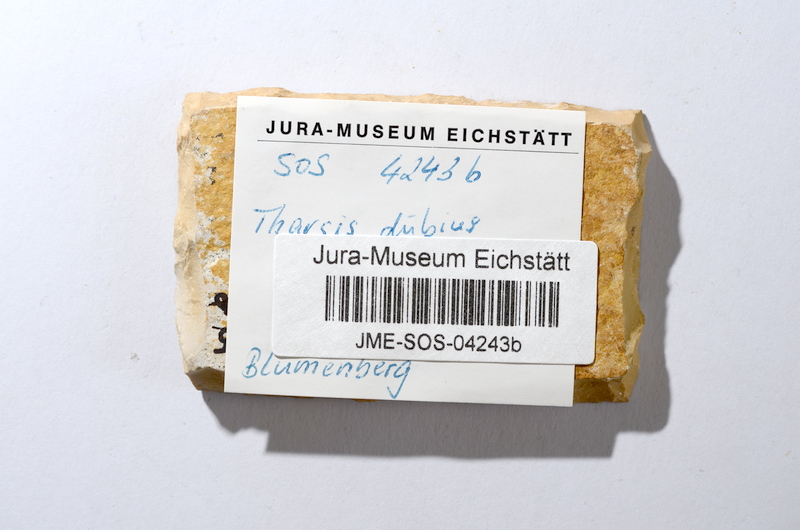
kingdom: Animalia
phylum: Chordata
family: Ascalaboidae
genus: Tharsis
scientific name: Tharsis dubius
